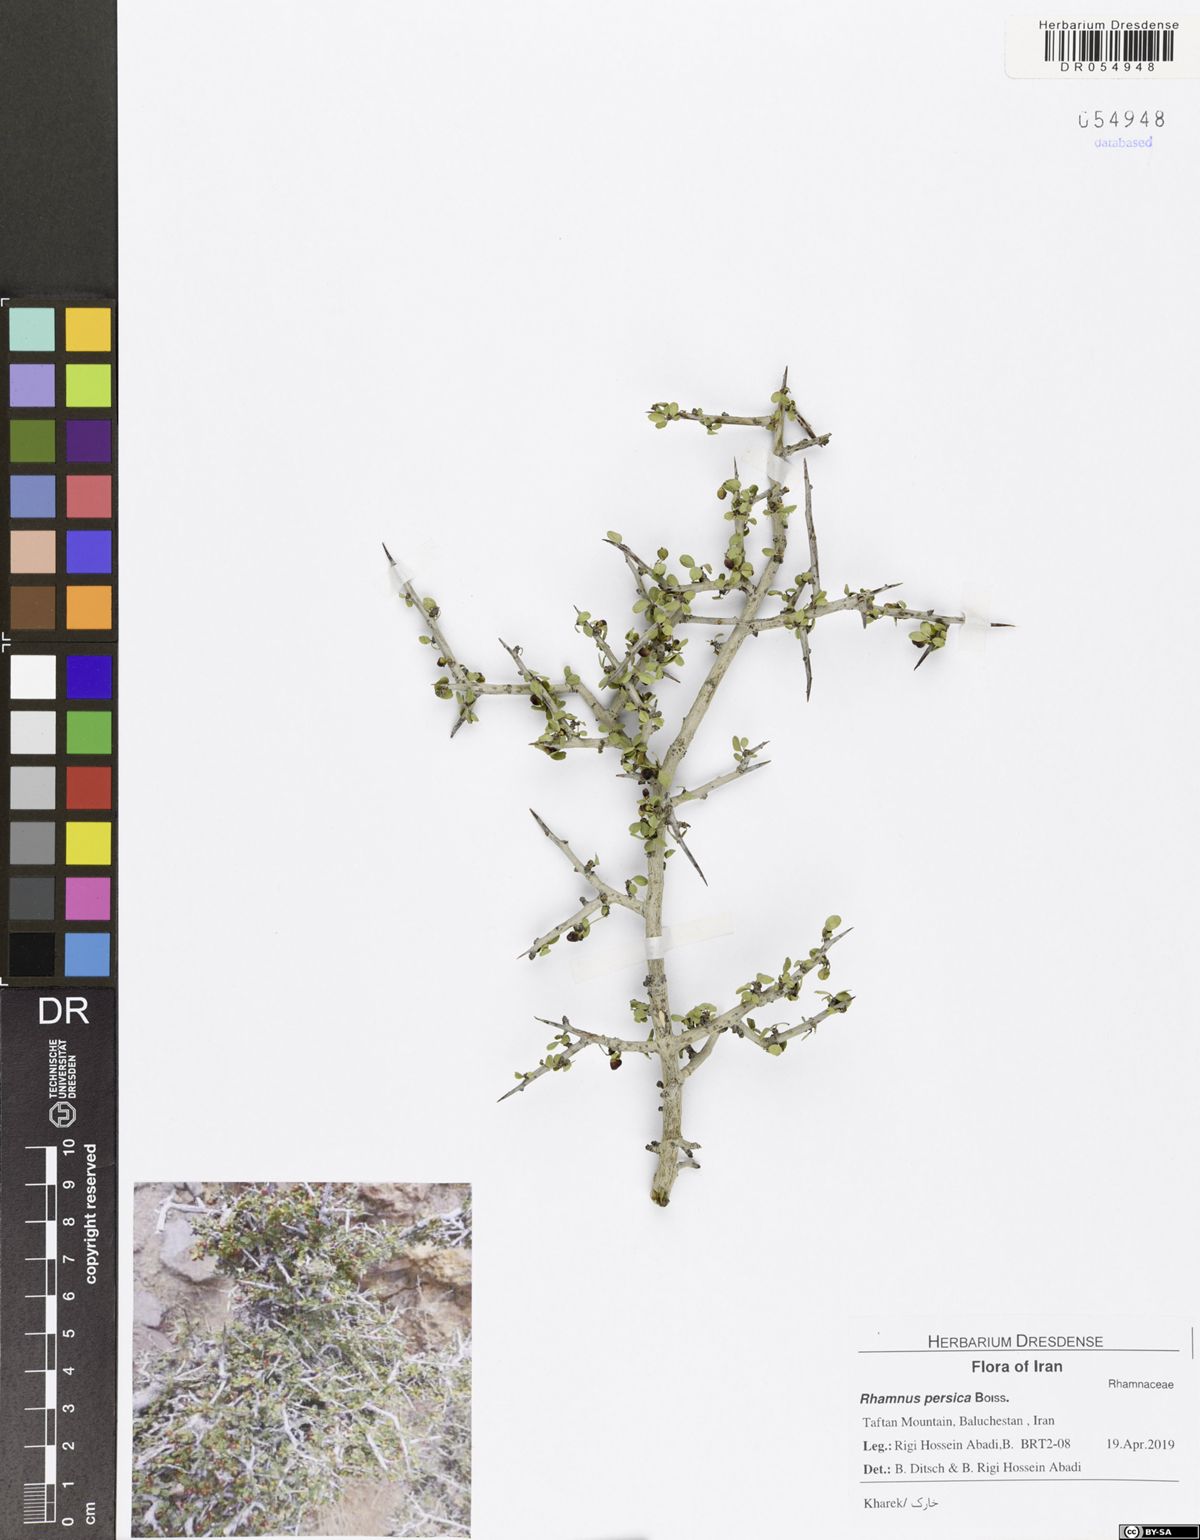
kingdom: Plantae
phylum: Tracheophyta
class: Magnoliopsida
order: Rosales
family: Rhamnaceae
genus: Rhamnus
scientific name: Rhamnus persica
